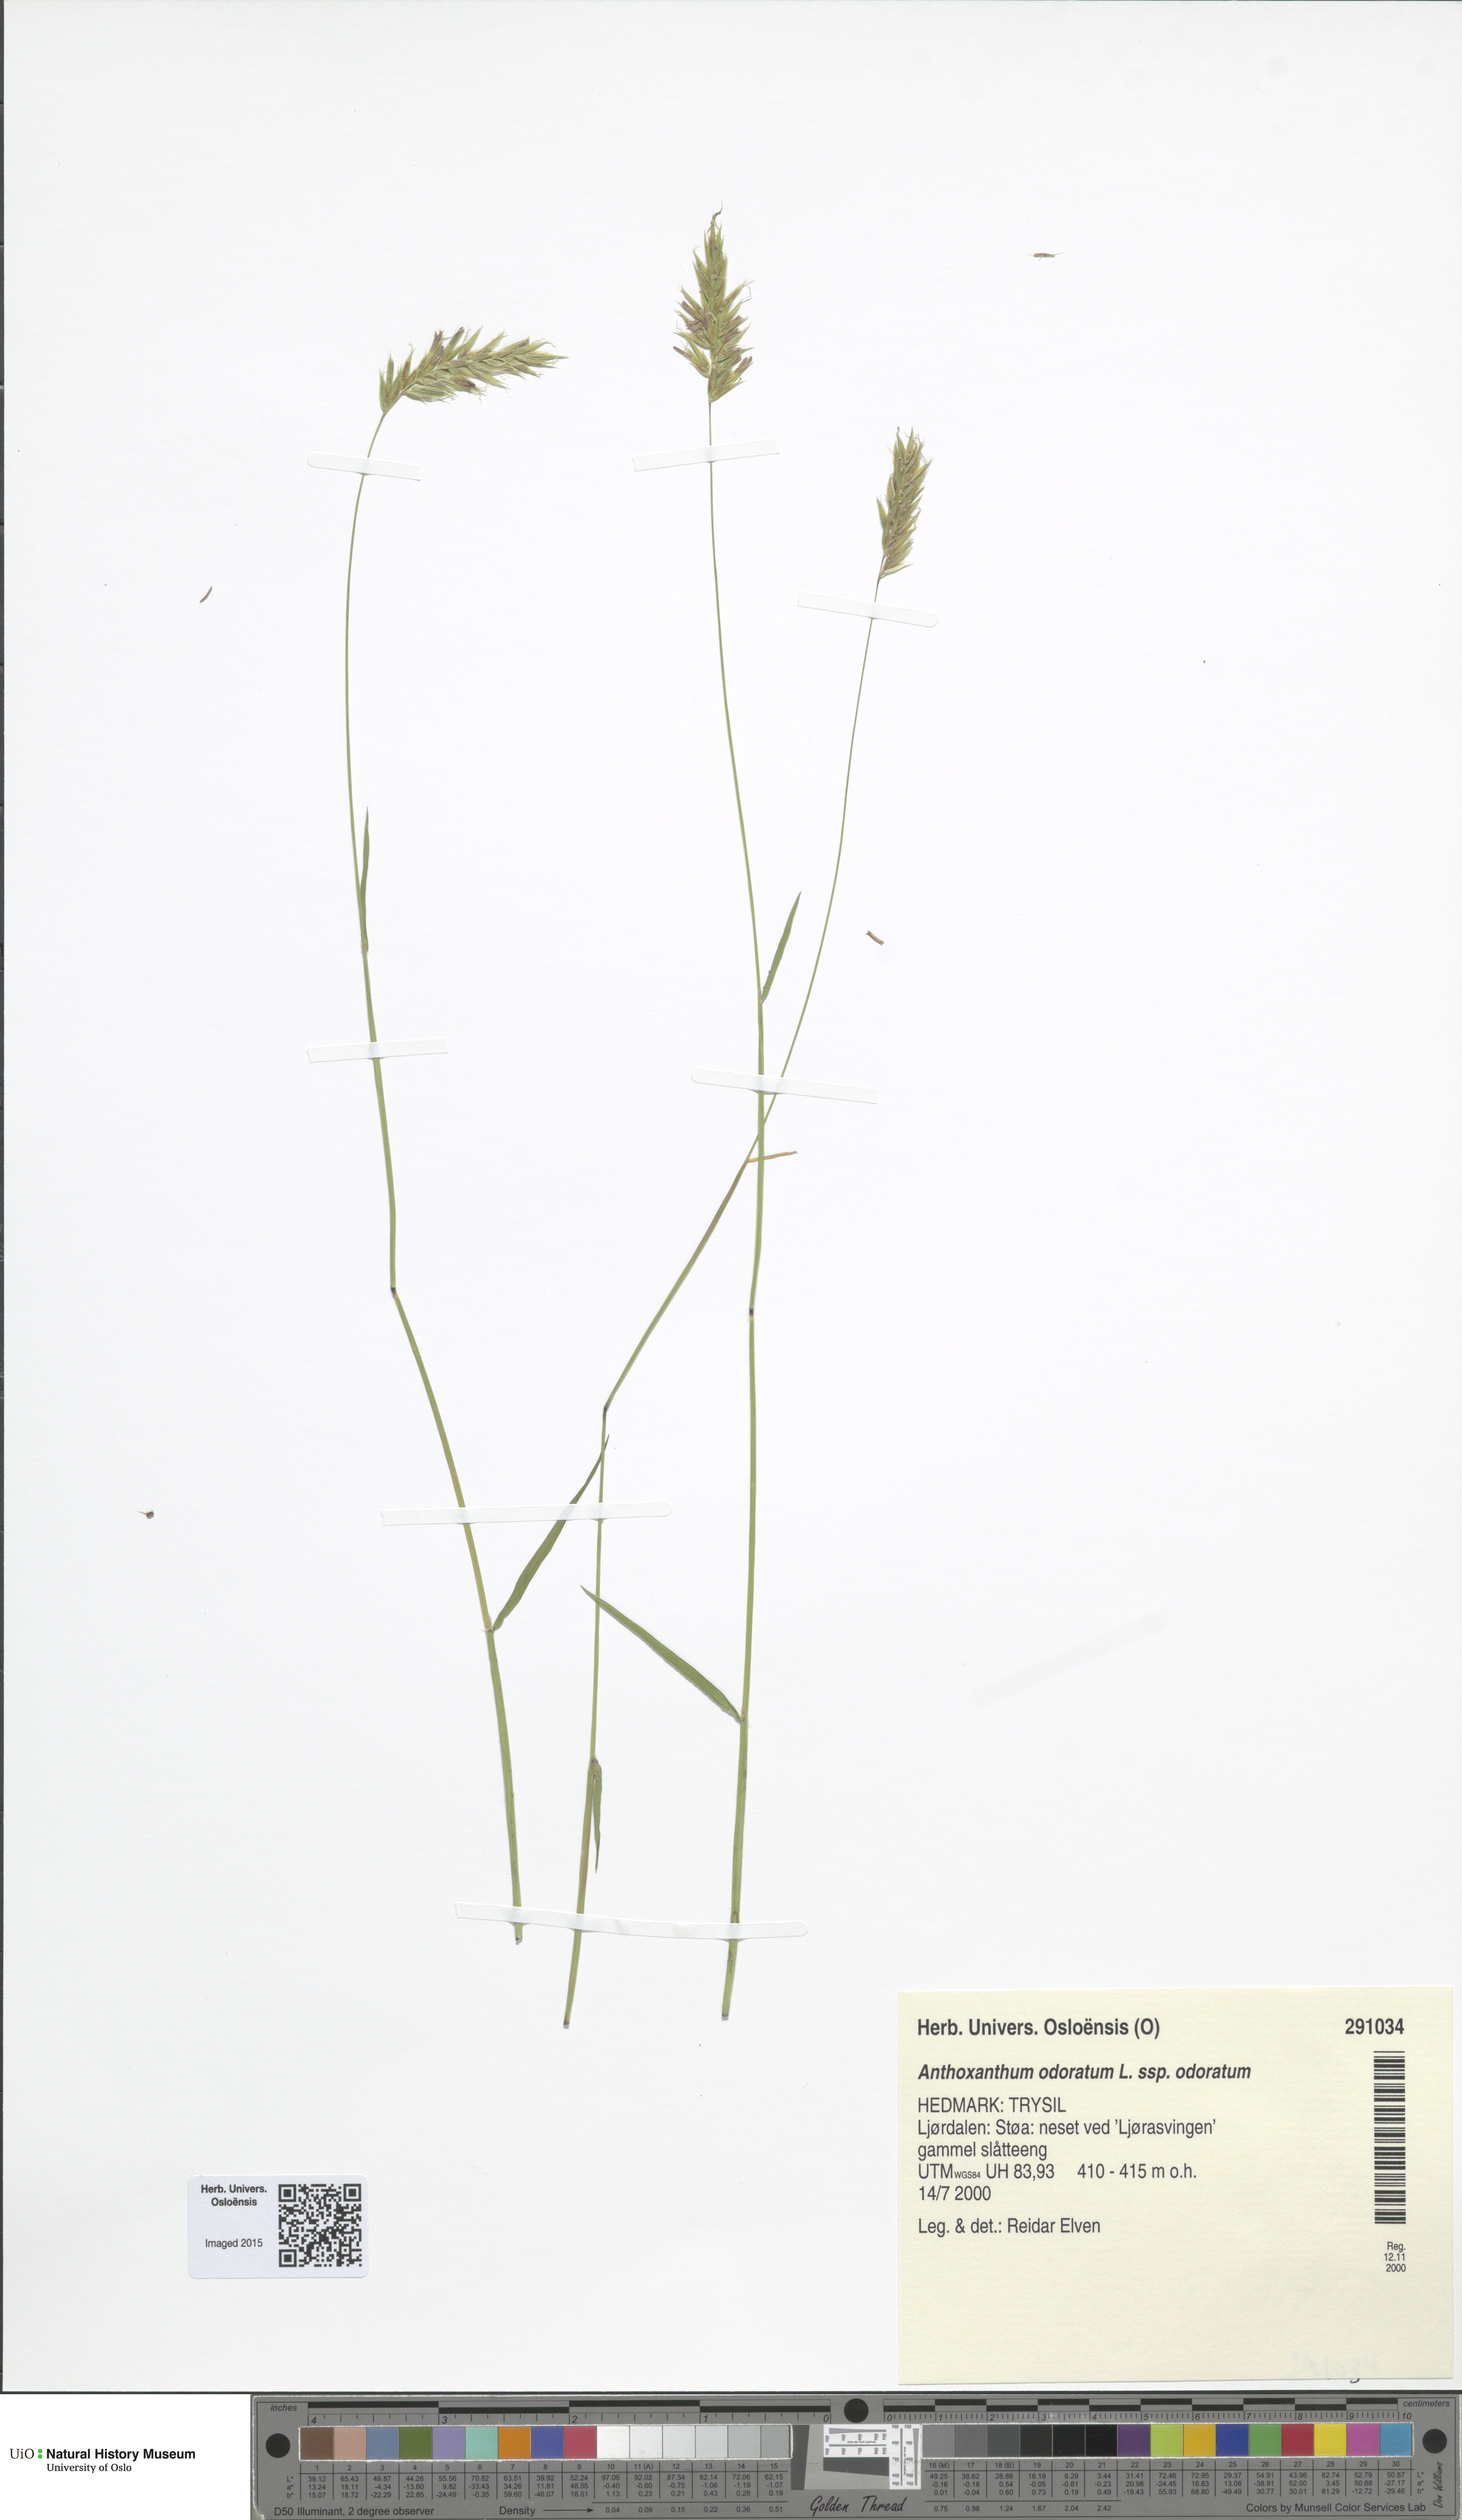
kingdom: Plantae
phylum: Tracheophyta
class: Liliopsida
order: Poales
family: Poaceae
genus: Anthoxanthum
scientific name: Anthoxanthum odoratum
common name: Sweet vernalgrass
